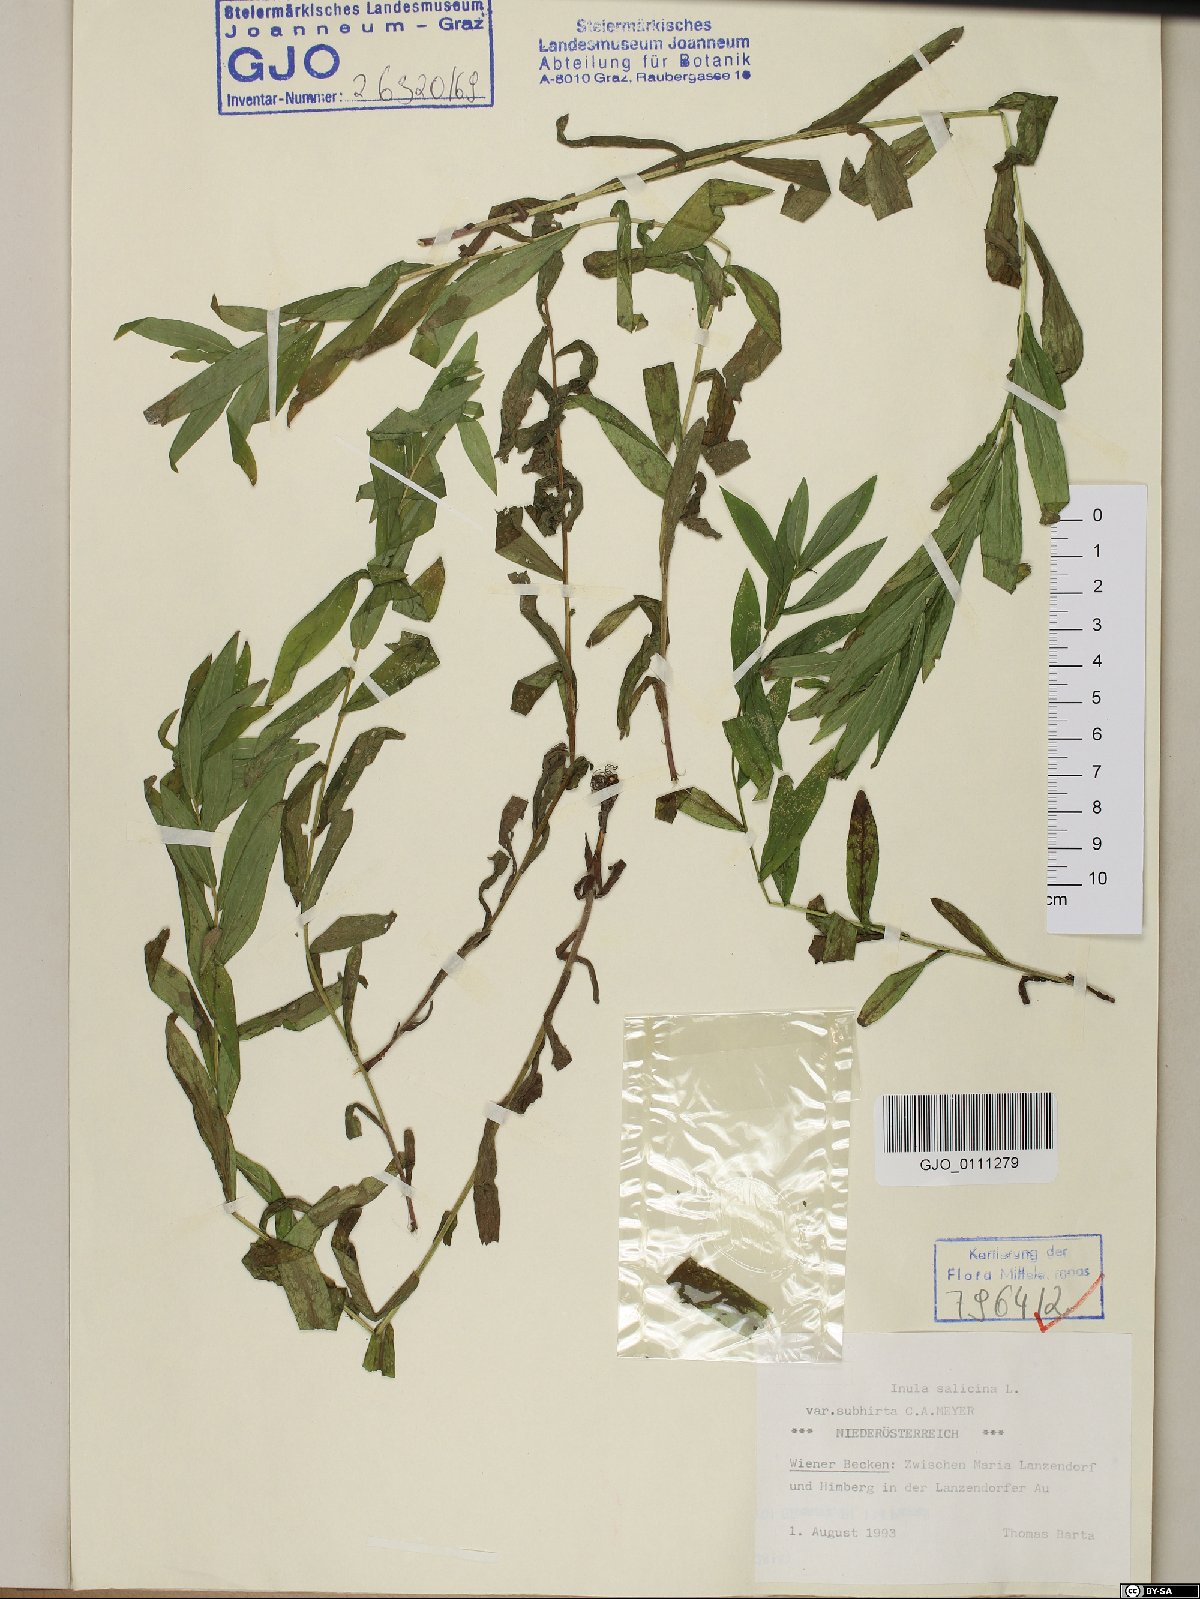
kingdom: Plantae
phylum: Tracheophyta
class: Magnoliopsida
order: Asterales
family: Asteraceae
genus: Pentanema
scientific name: Pentanema salicinum
